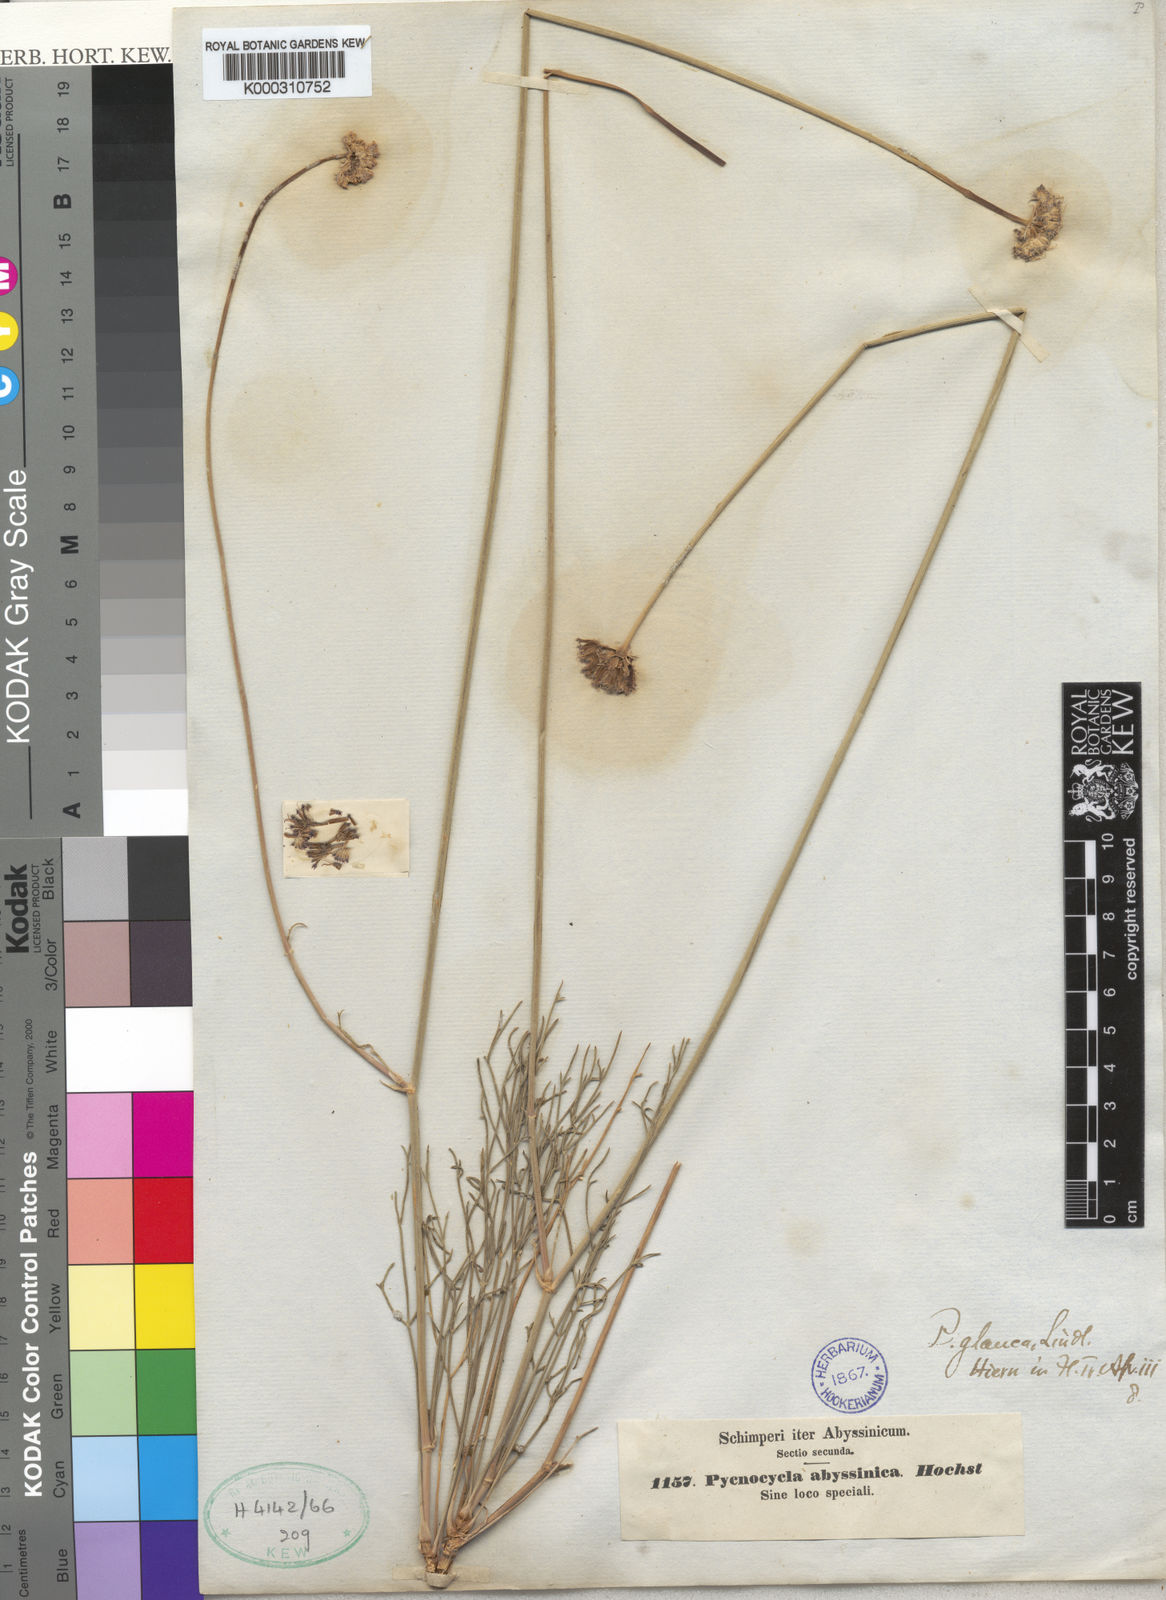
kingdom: Plantae
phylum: Tracheophyta
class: Magnoliopsida
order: Apiales
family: Apiaceae
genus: Pycnocycla
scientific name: Pycnocycla glauca
